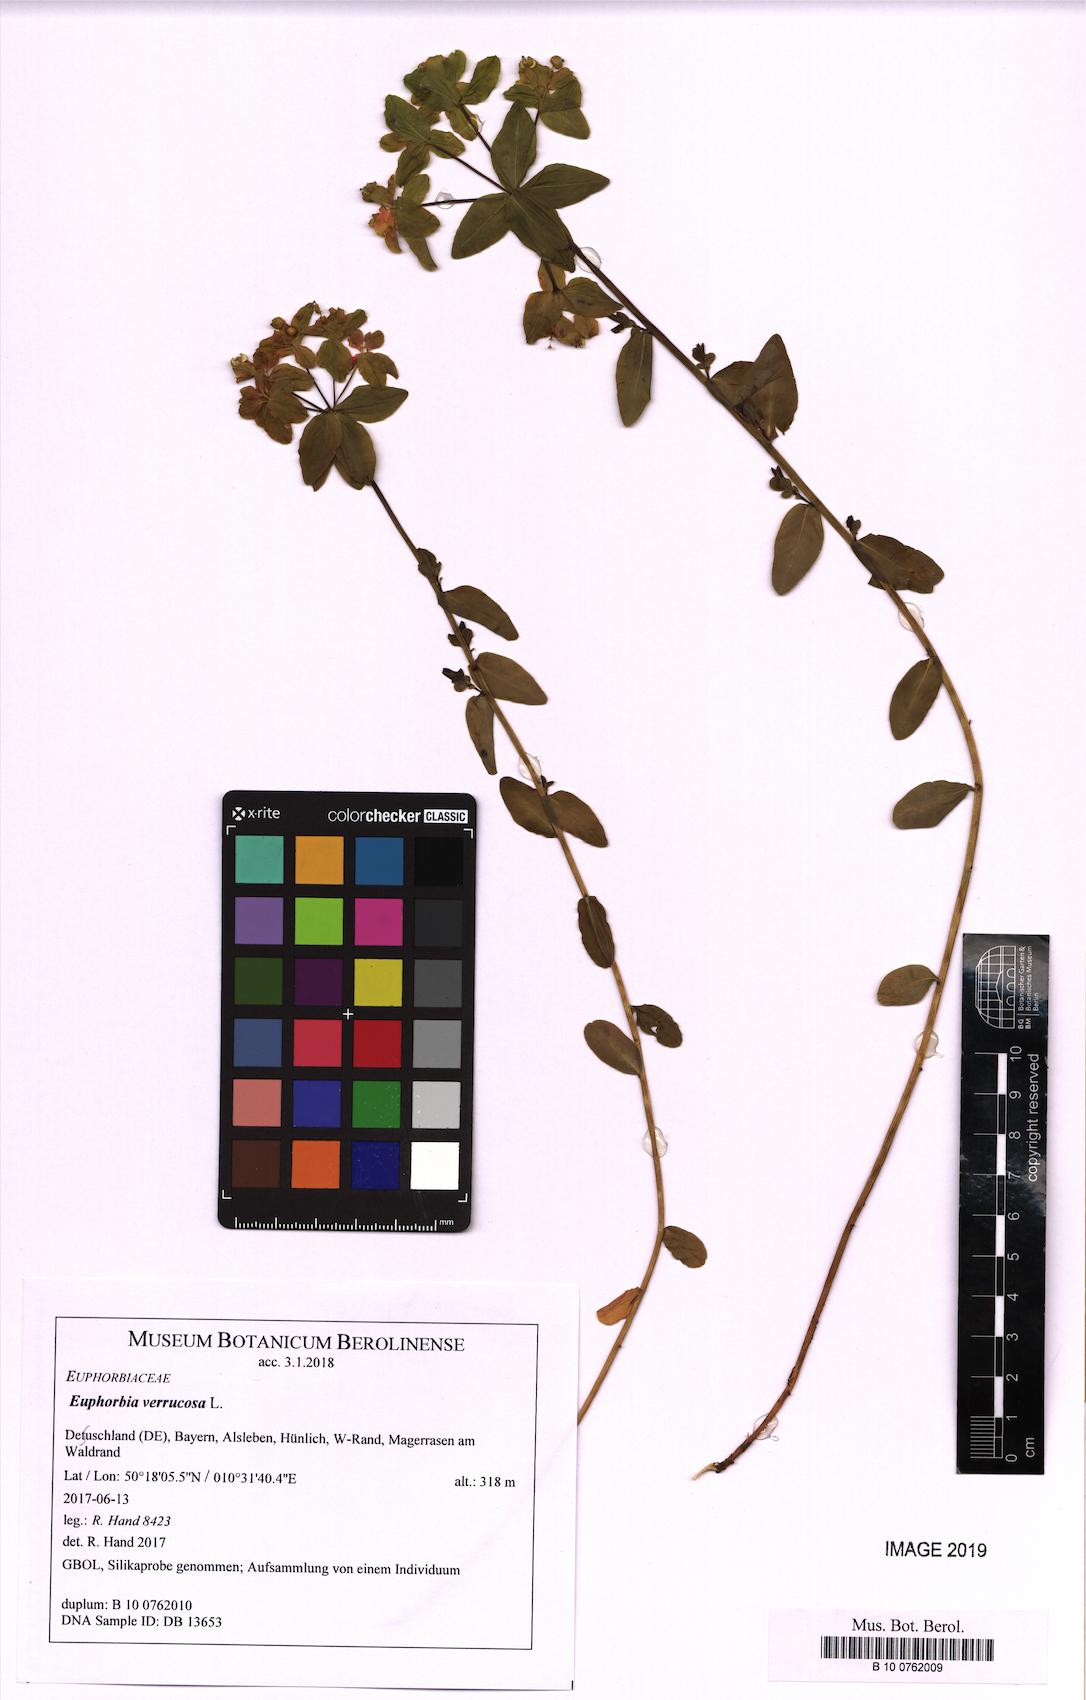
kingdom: Plantae
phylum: Tracheophyta
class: Magnoliopsida
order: Malpighiales
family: Euphorbiaceae
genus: Euphorbia
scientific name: Euphorbia verrucosa
